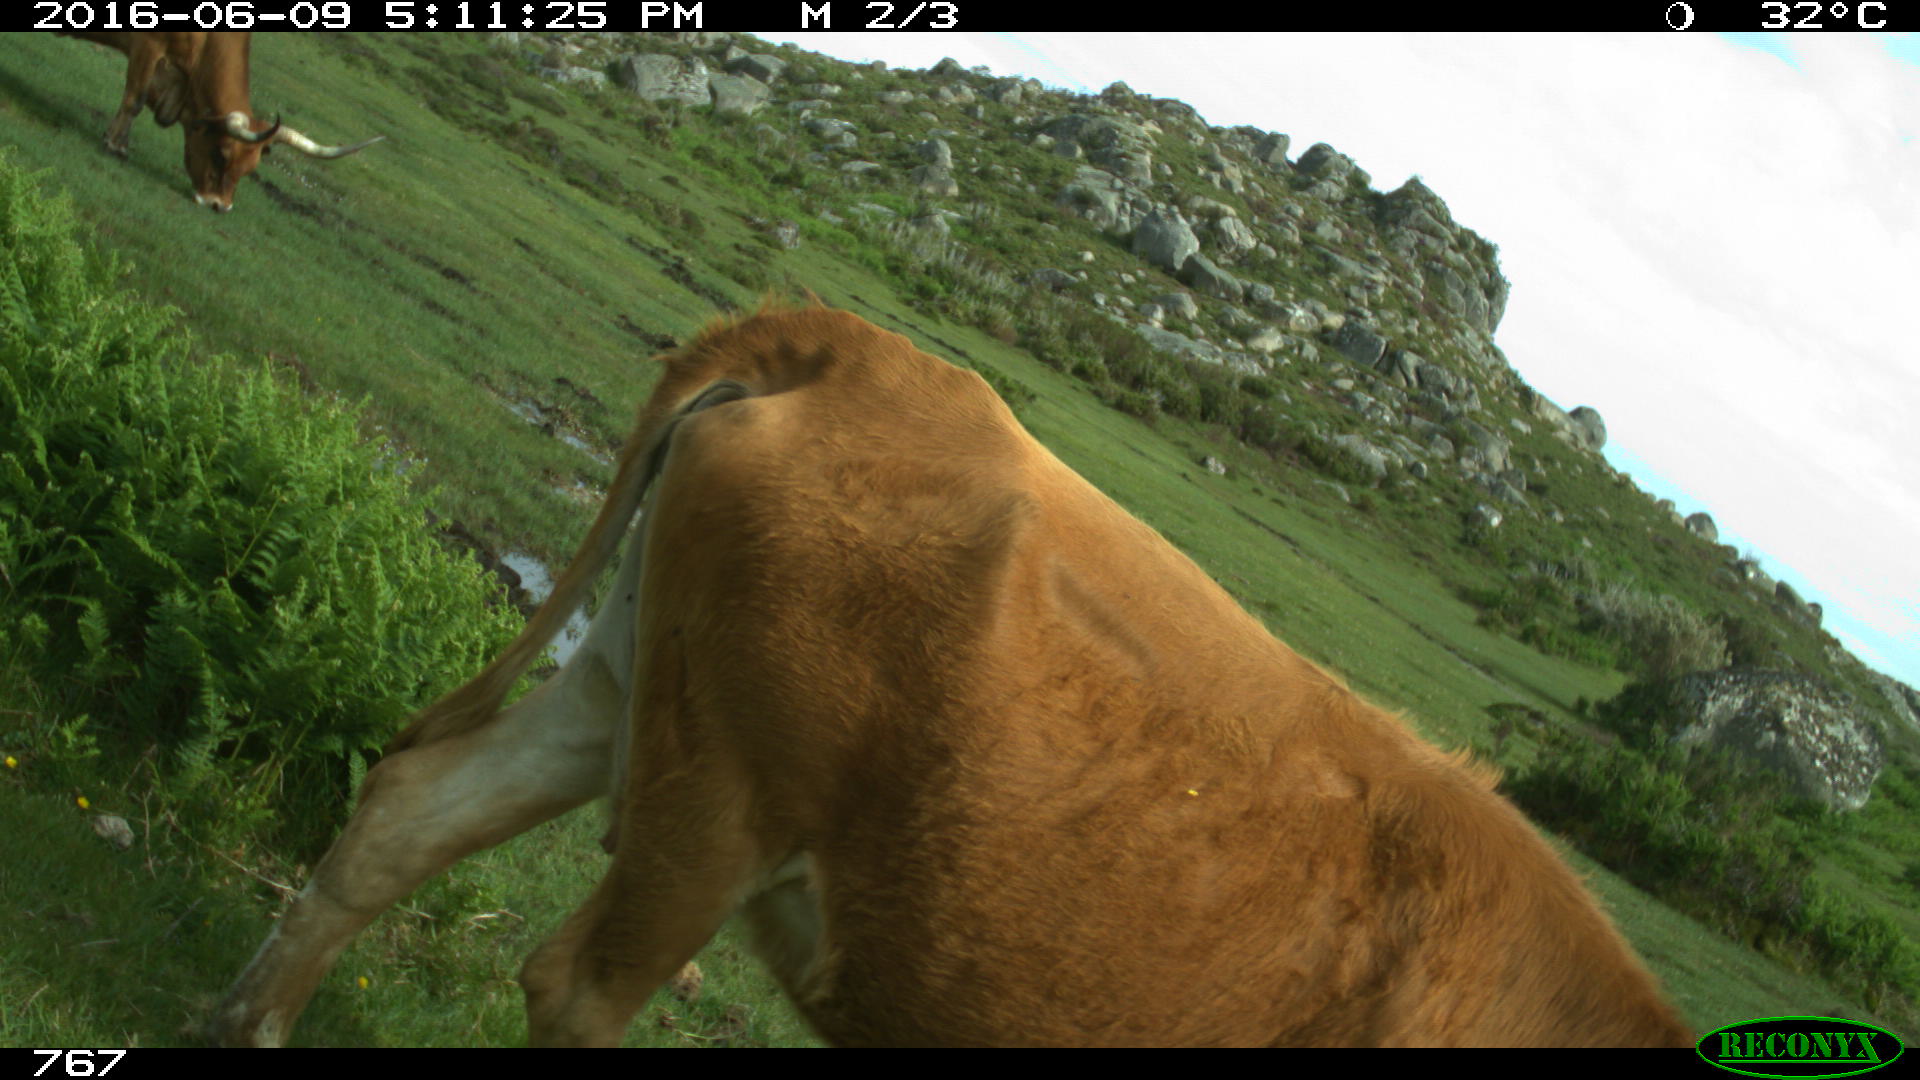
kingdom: Animalia
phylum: Chordata
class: Mammalia
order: Artiodactyla
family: Bovidae
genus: Bos
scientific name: Bos taurus
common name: Domesticated cattle
